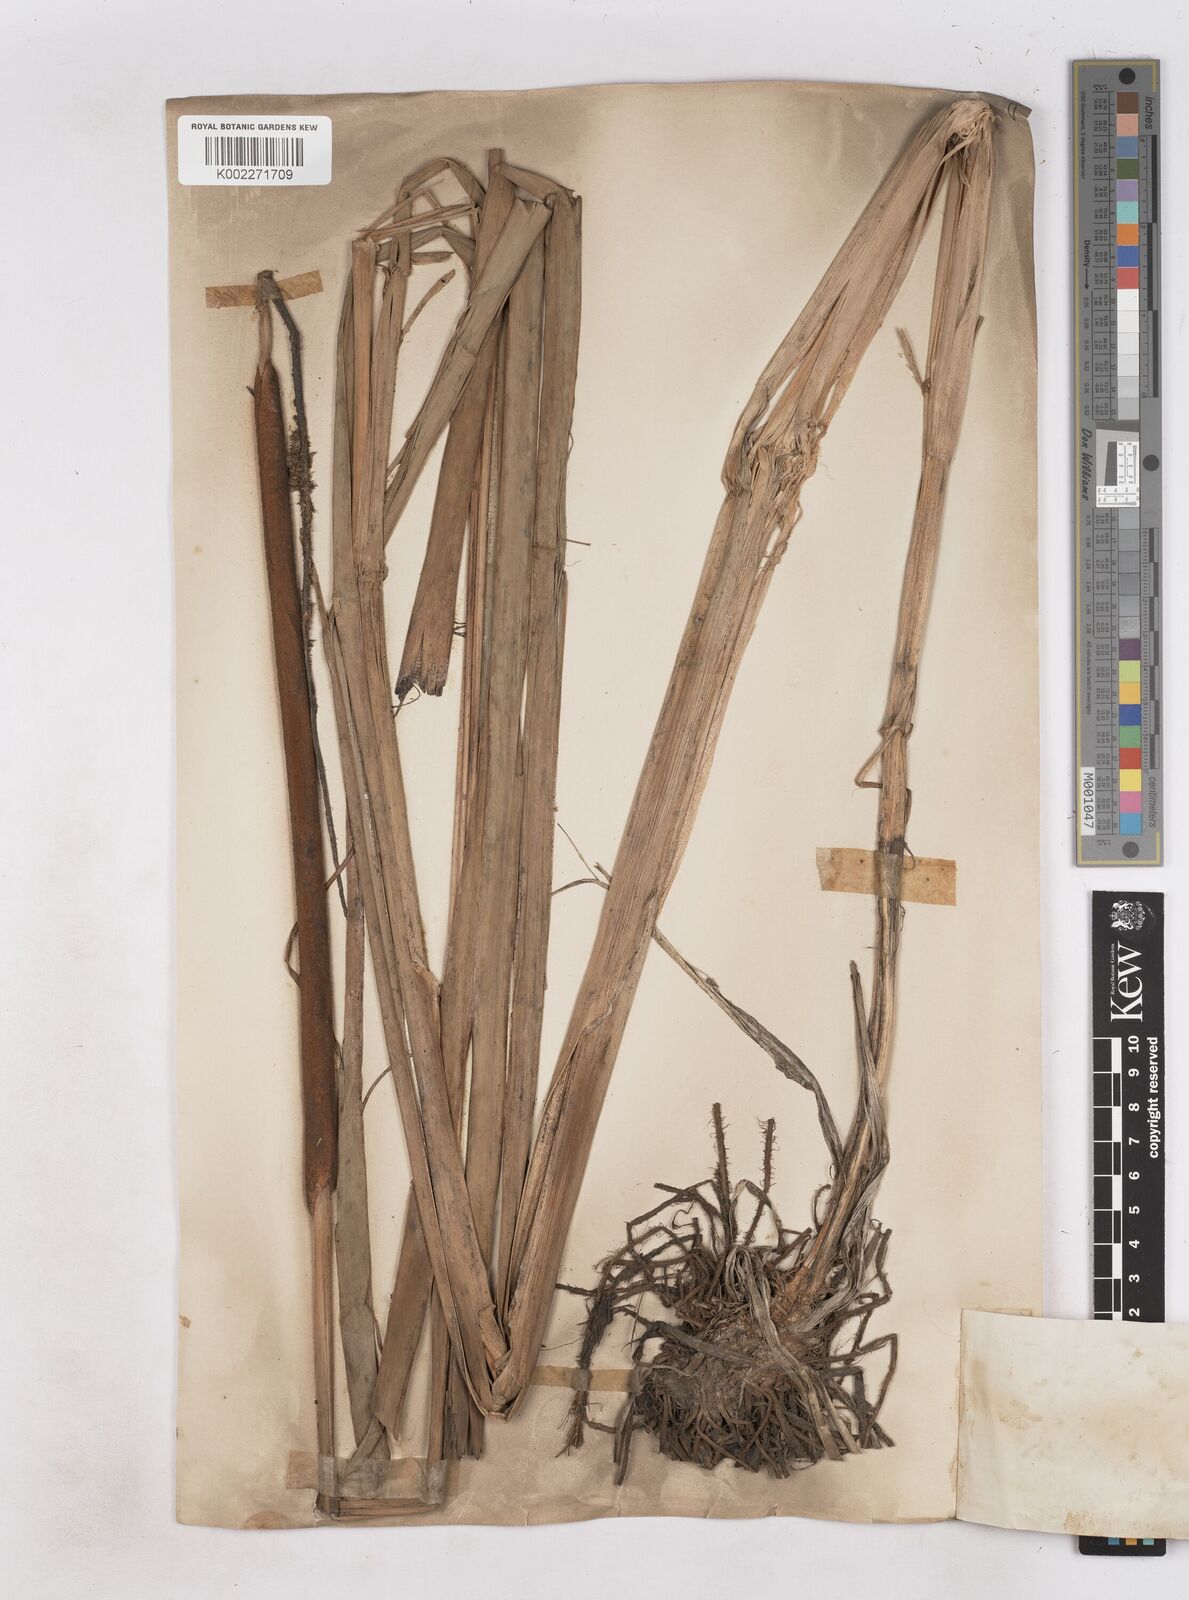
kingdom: Plantae
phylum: Tracheophyta
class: Liliopsida
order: Poales
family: Typhaceae
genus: Typha
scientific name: Typha domingensis
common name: Southern cattail
